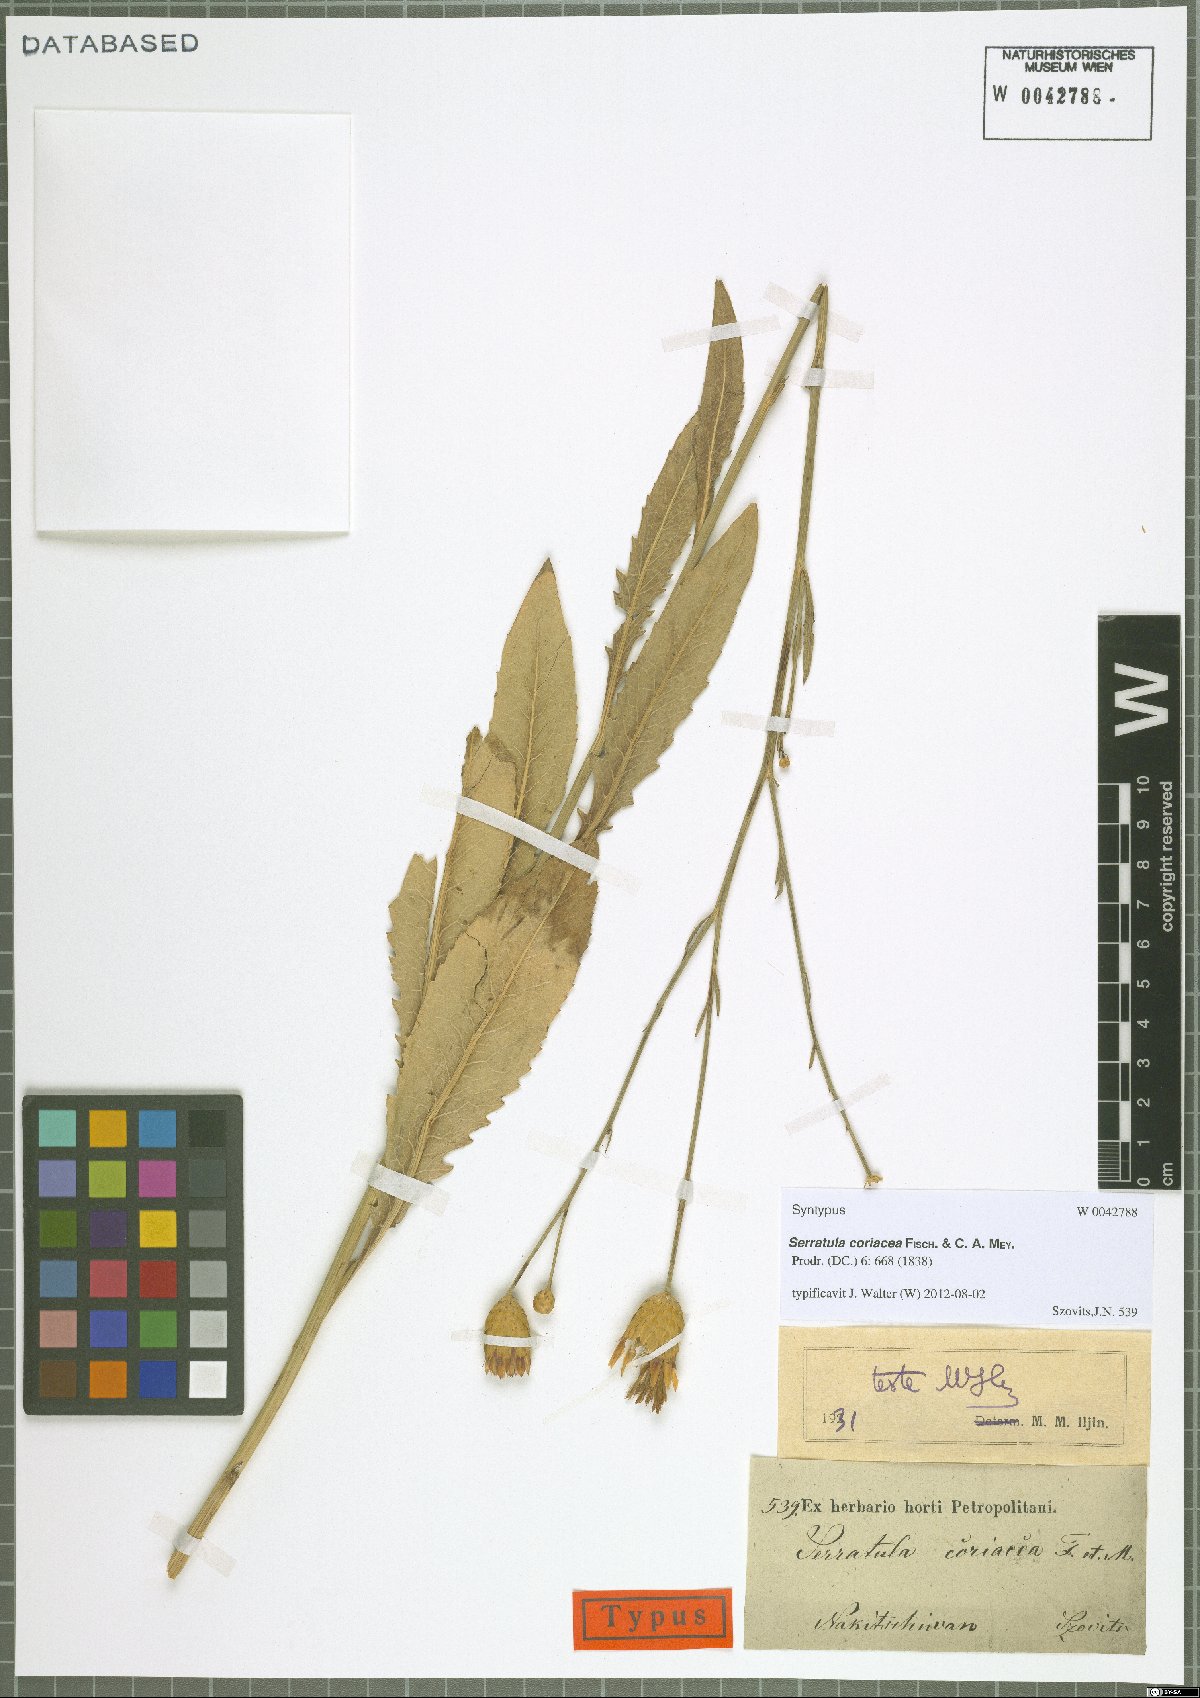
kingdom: Plantae
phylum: Tracheophyta
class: Magnoliopsida
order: Asterales
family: Asteraceae
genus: Serratula
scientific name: Serratula coriacea
